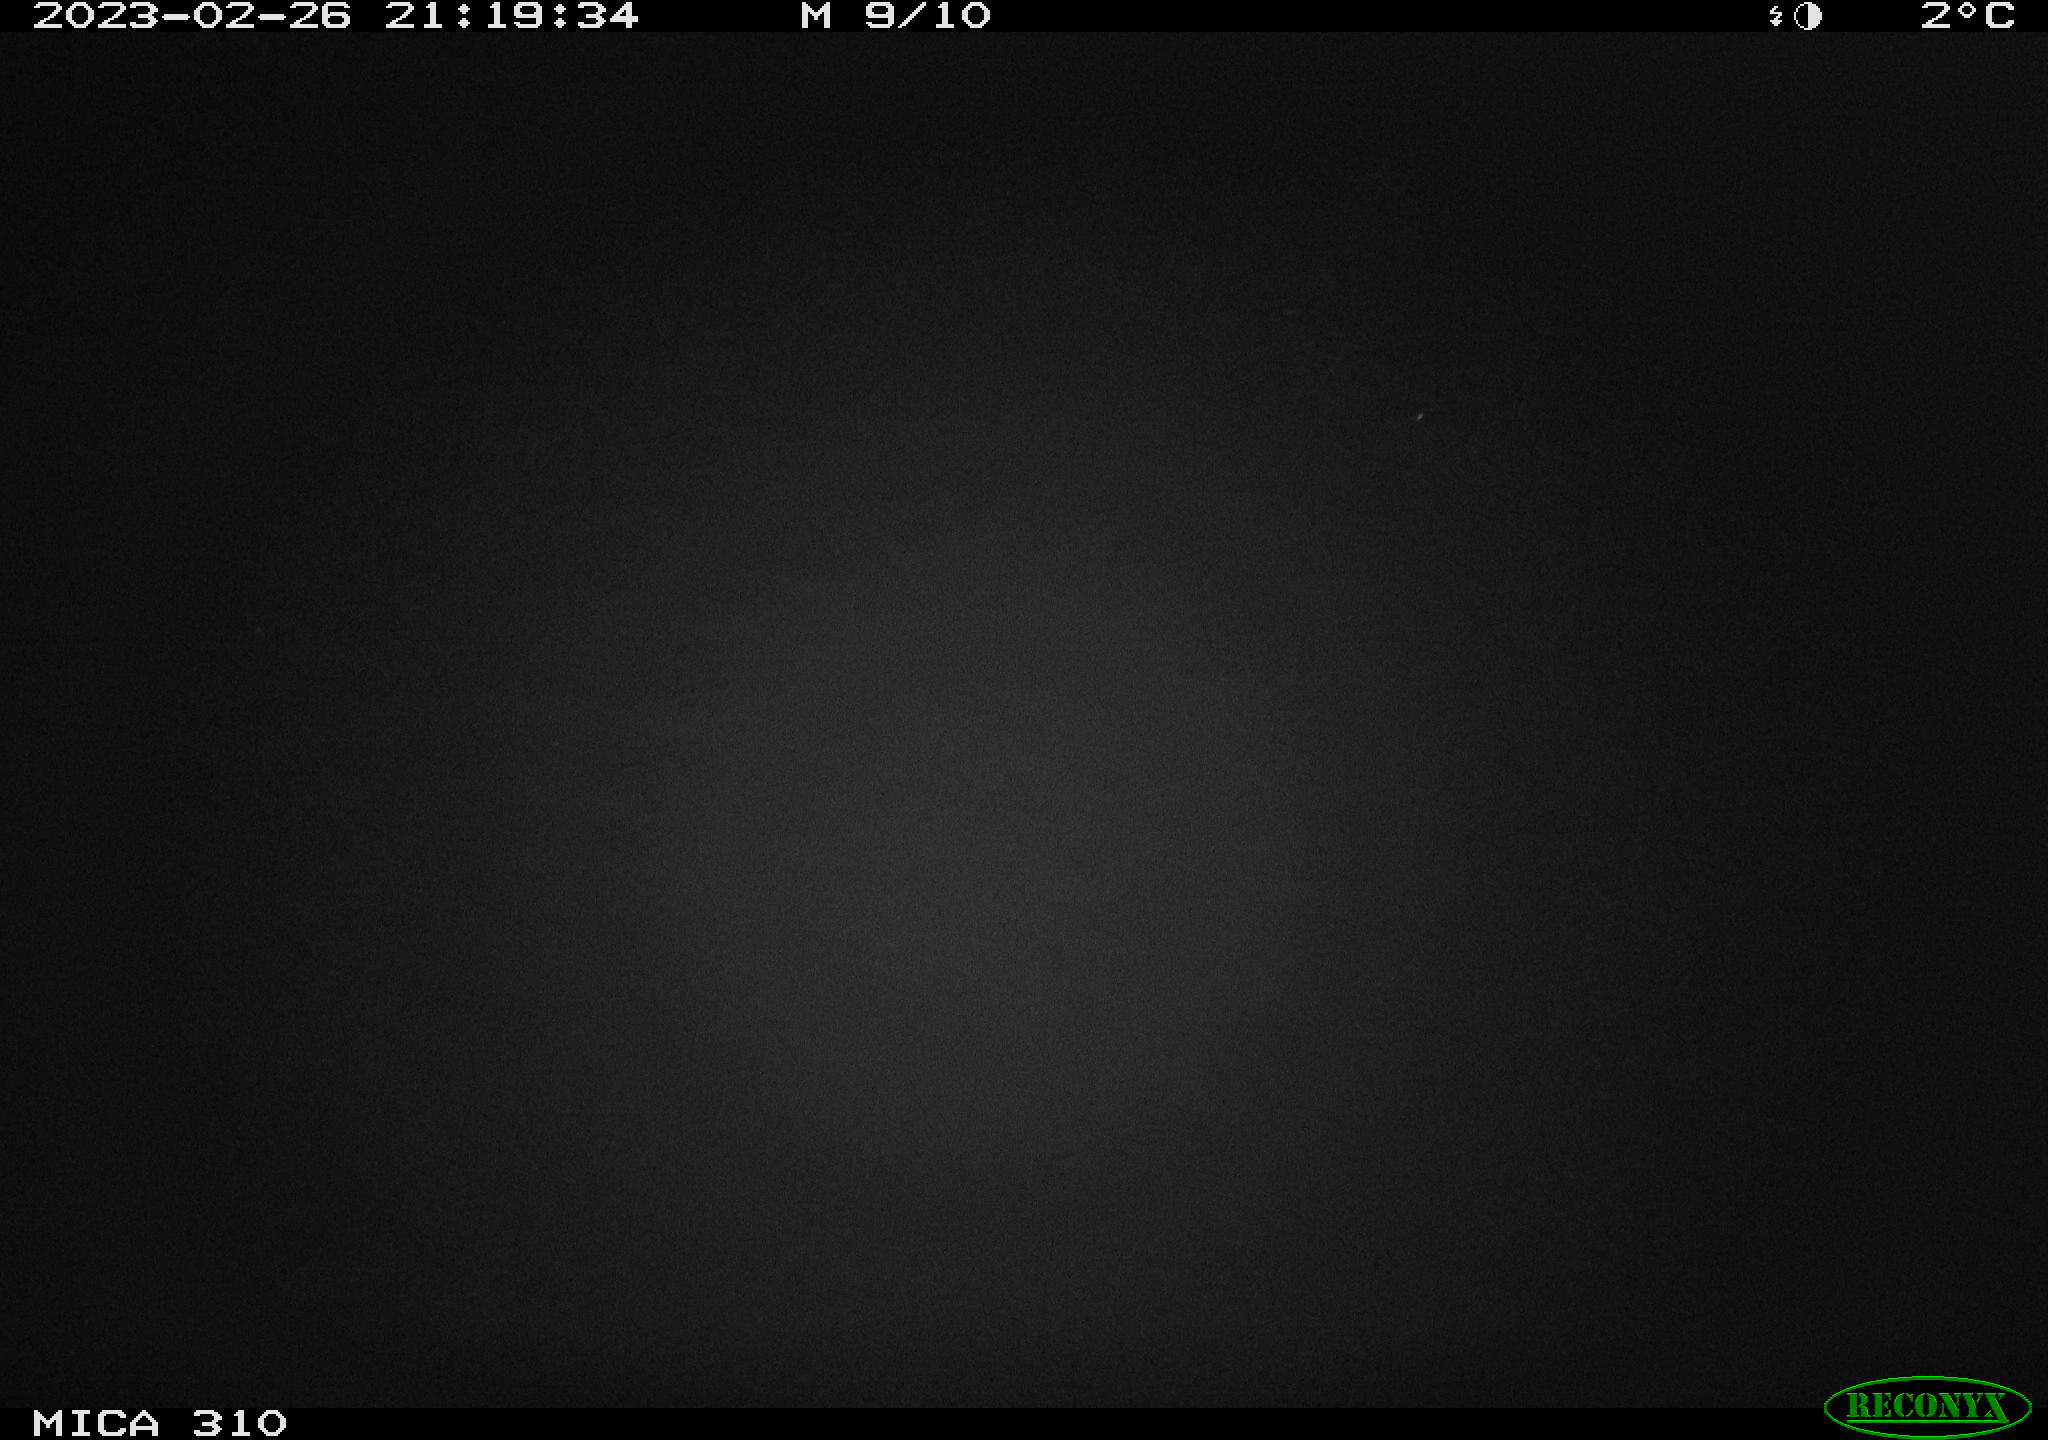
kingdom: Animalia
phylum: Chordata
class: Mammalia
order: Rodentia
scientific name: Rodentia
